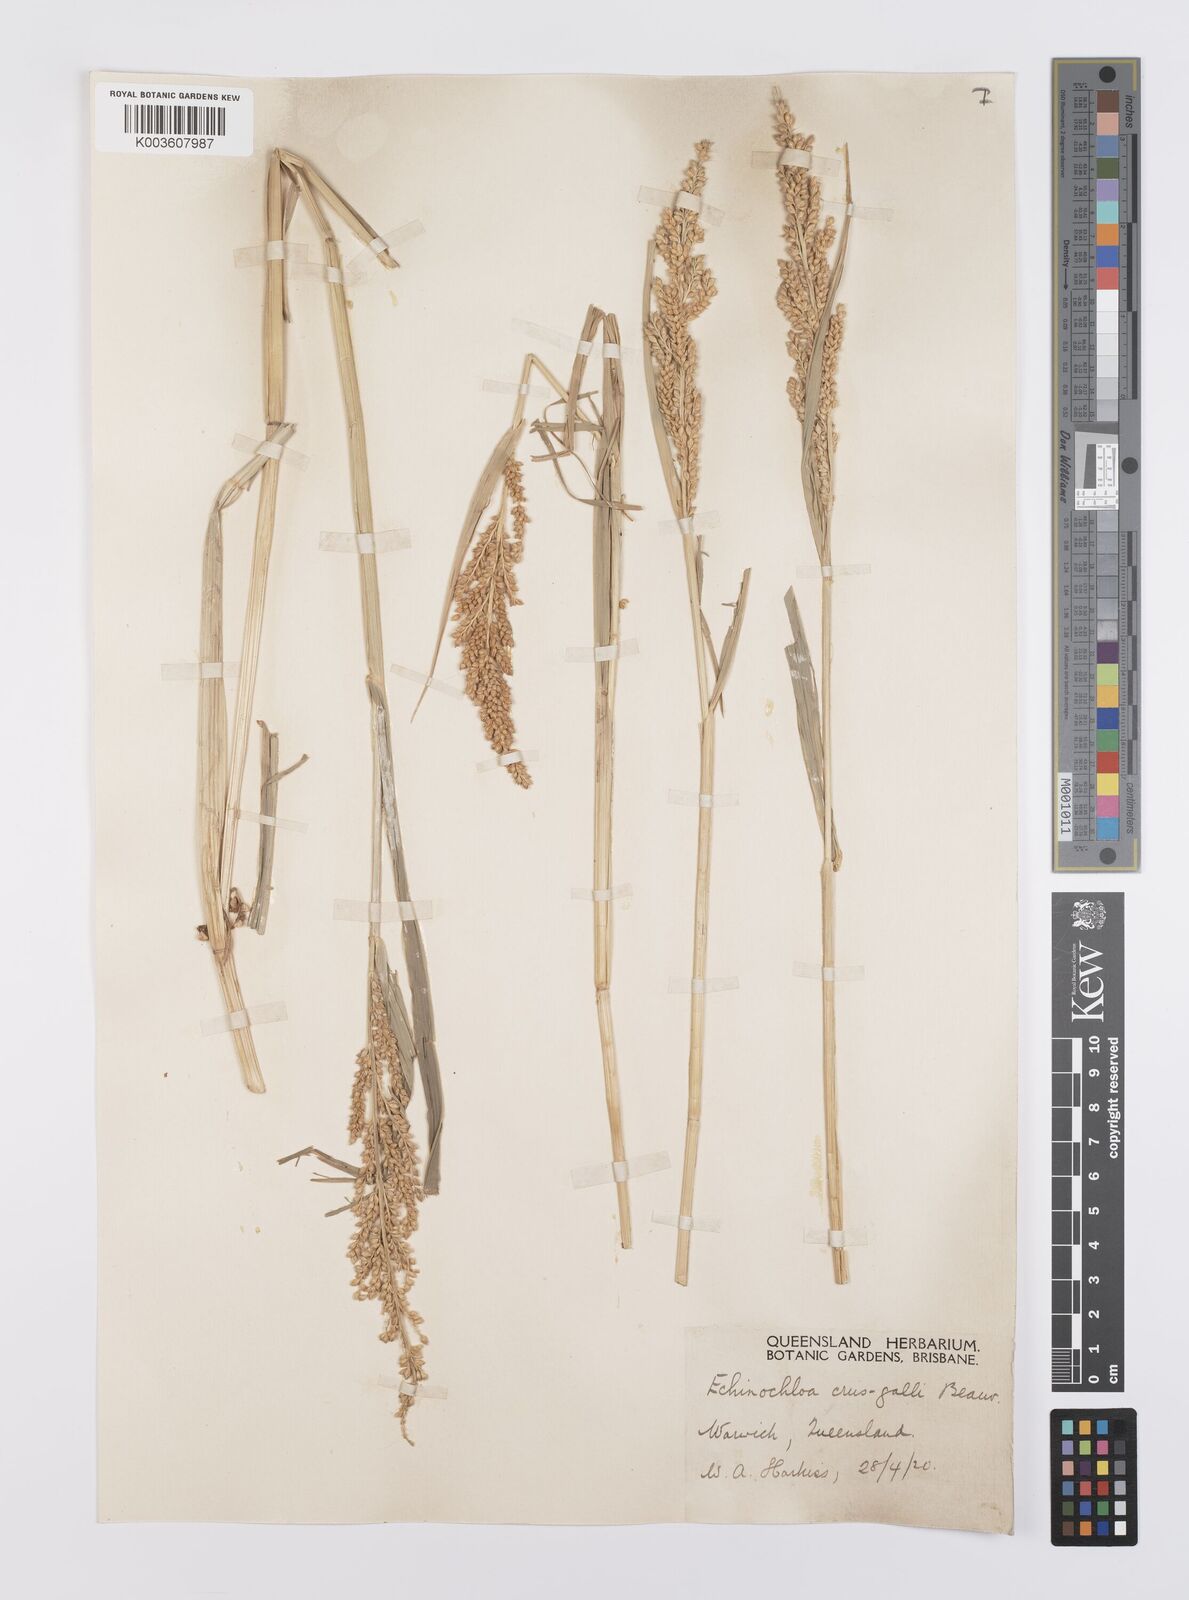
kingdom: Plantae
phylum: Tracheophyta
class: Liliopsida
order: Poales
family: Poaceae
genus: Echinochloa
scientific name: Echinochloa crus-galli
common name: Cockspur
